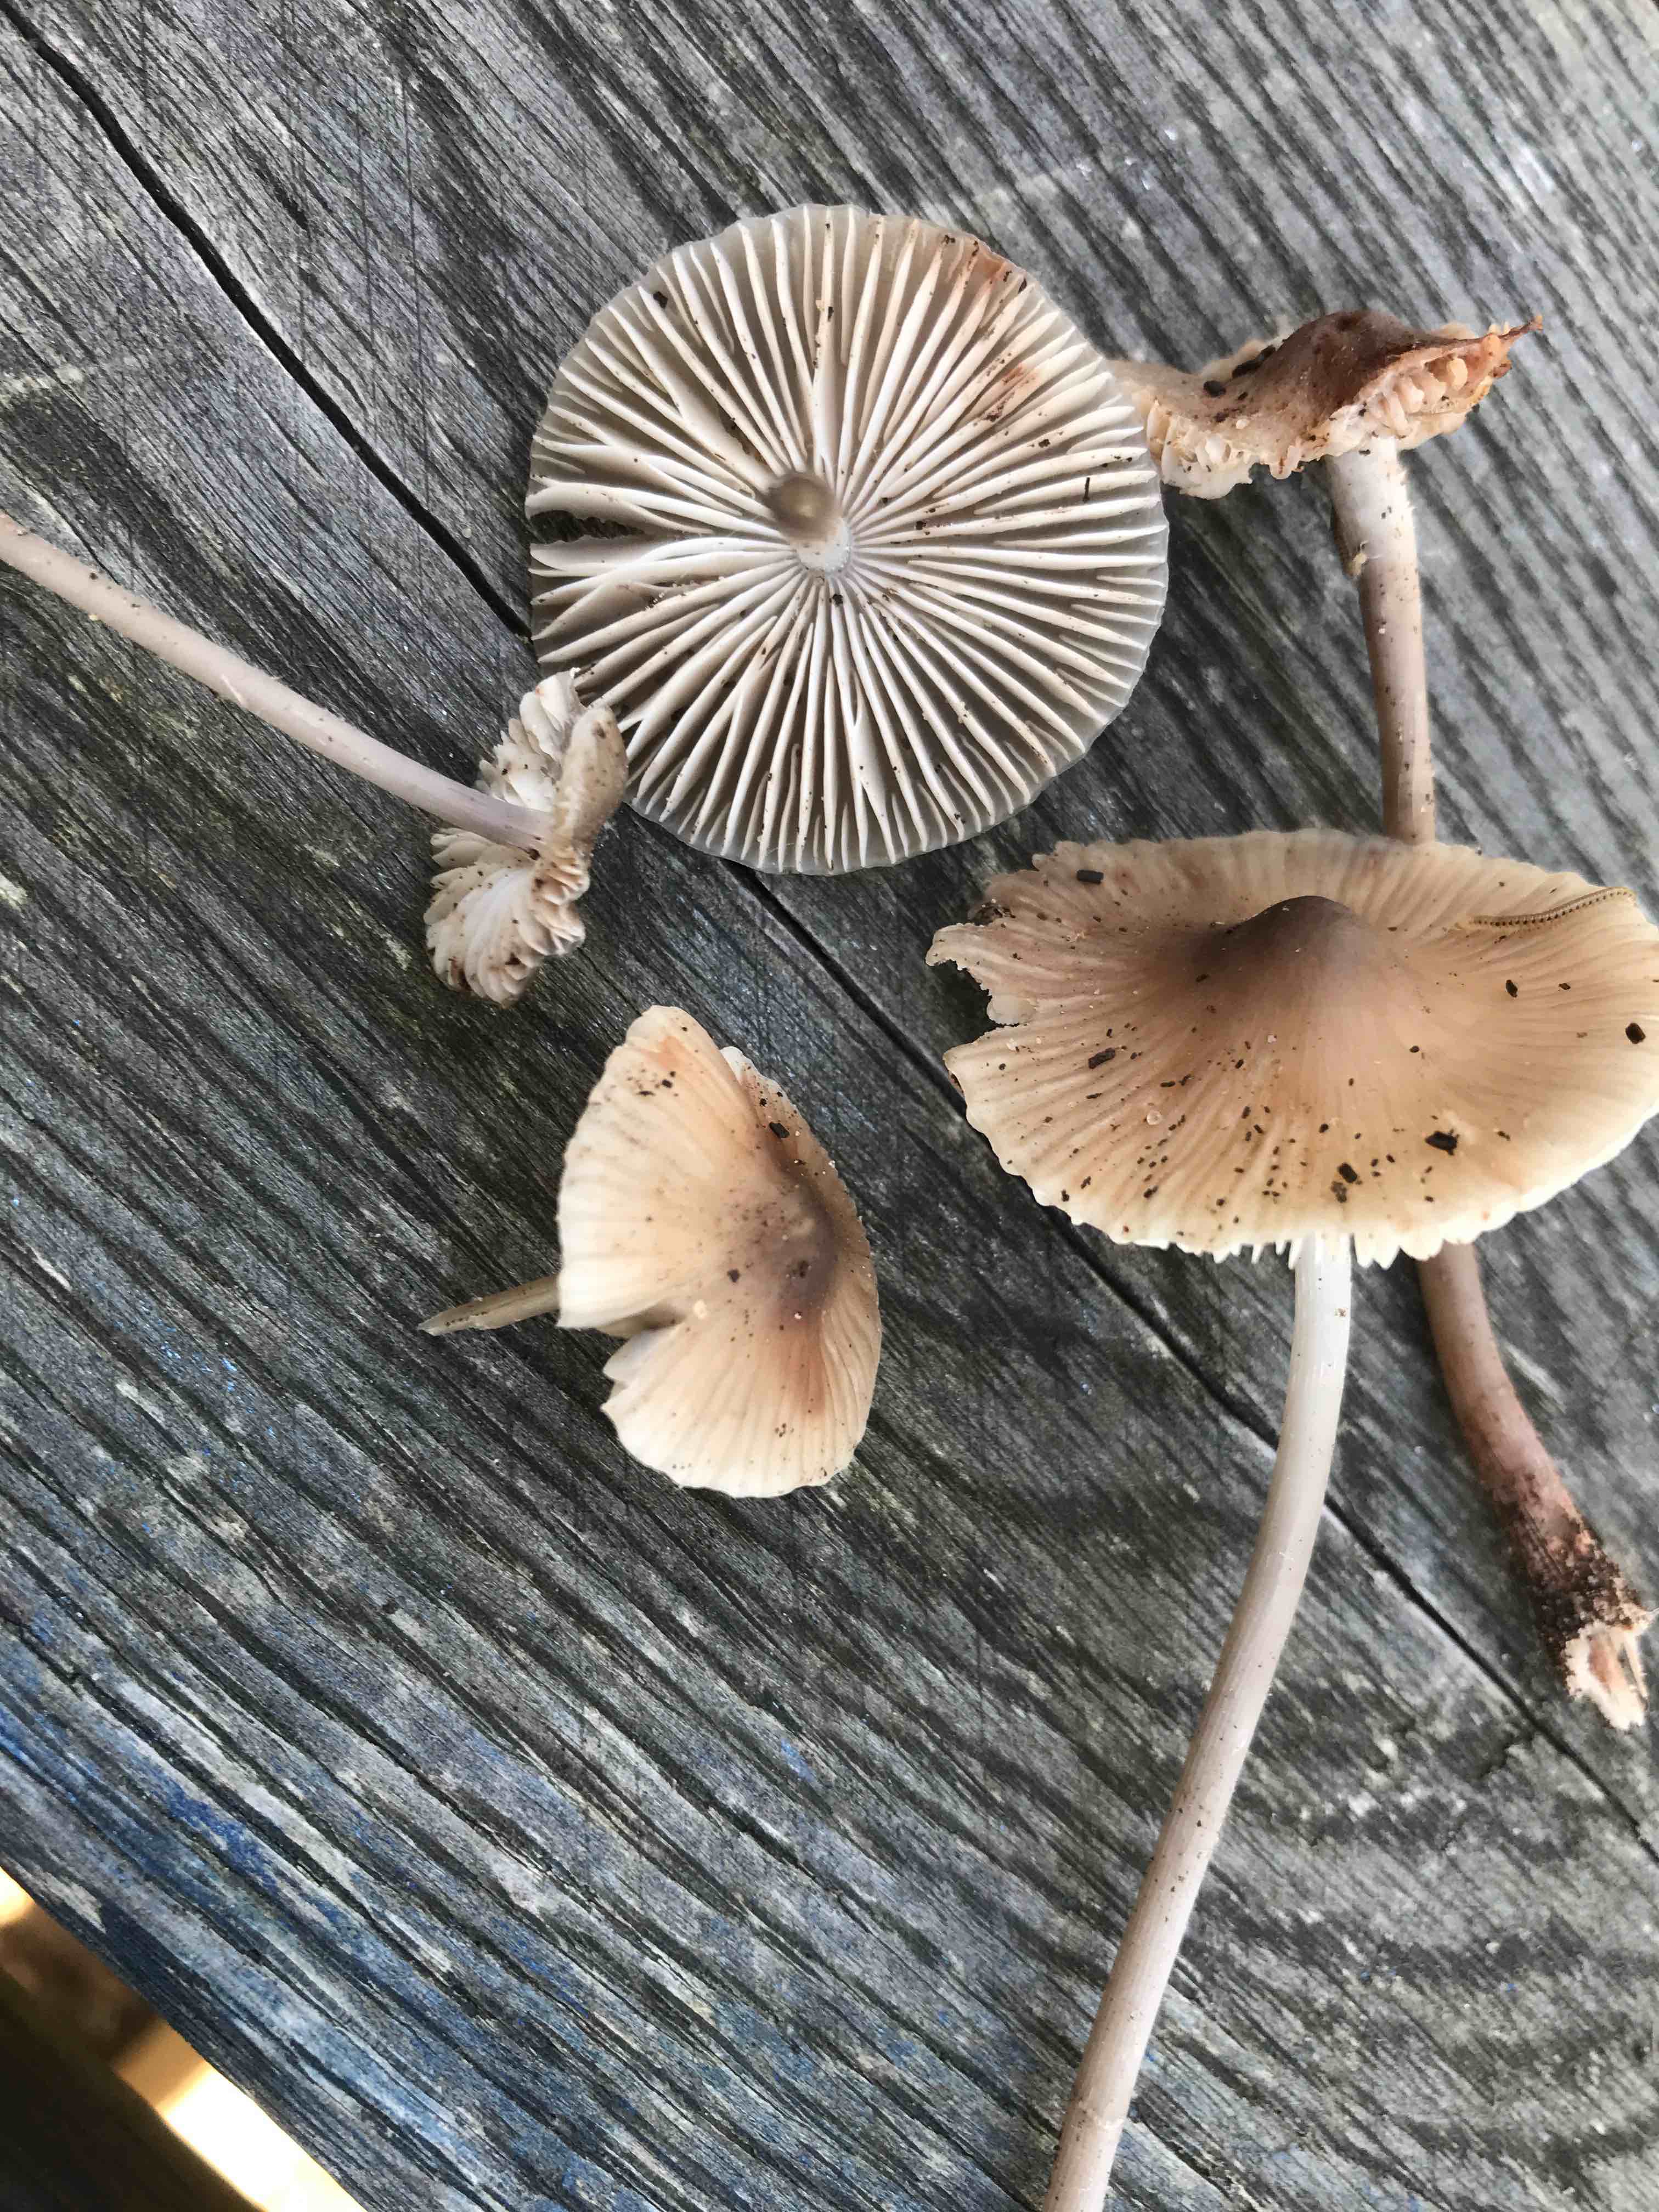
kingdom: Fungi
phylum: Basidiomycota
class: Agaricomycetes
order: Agaricales
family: Mycenaceae
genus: Mycena
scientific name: Mycena
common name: huesvamp
